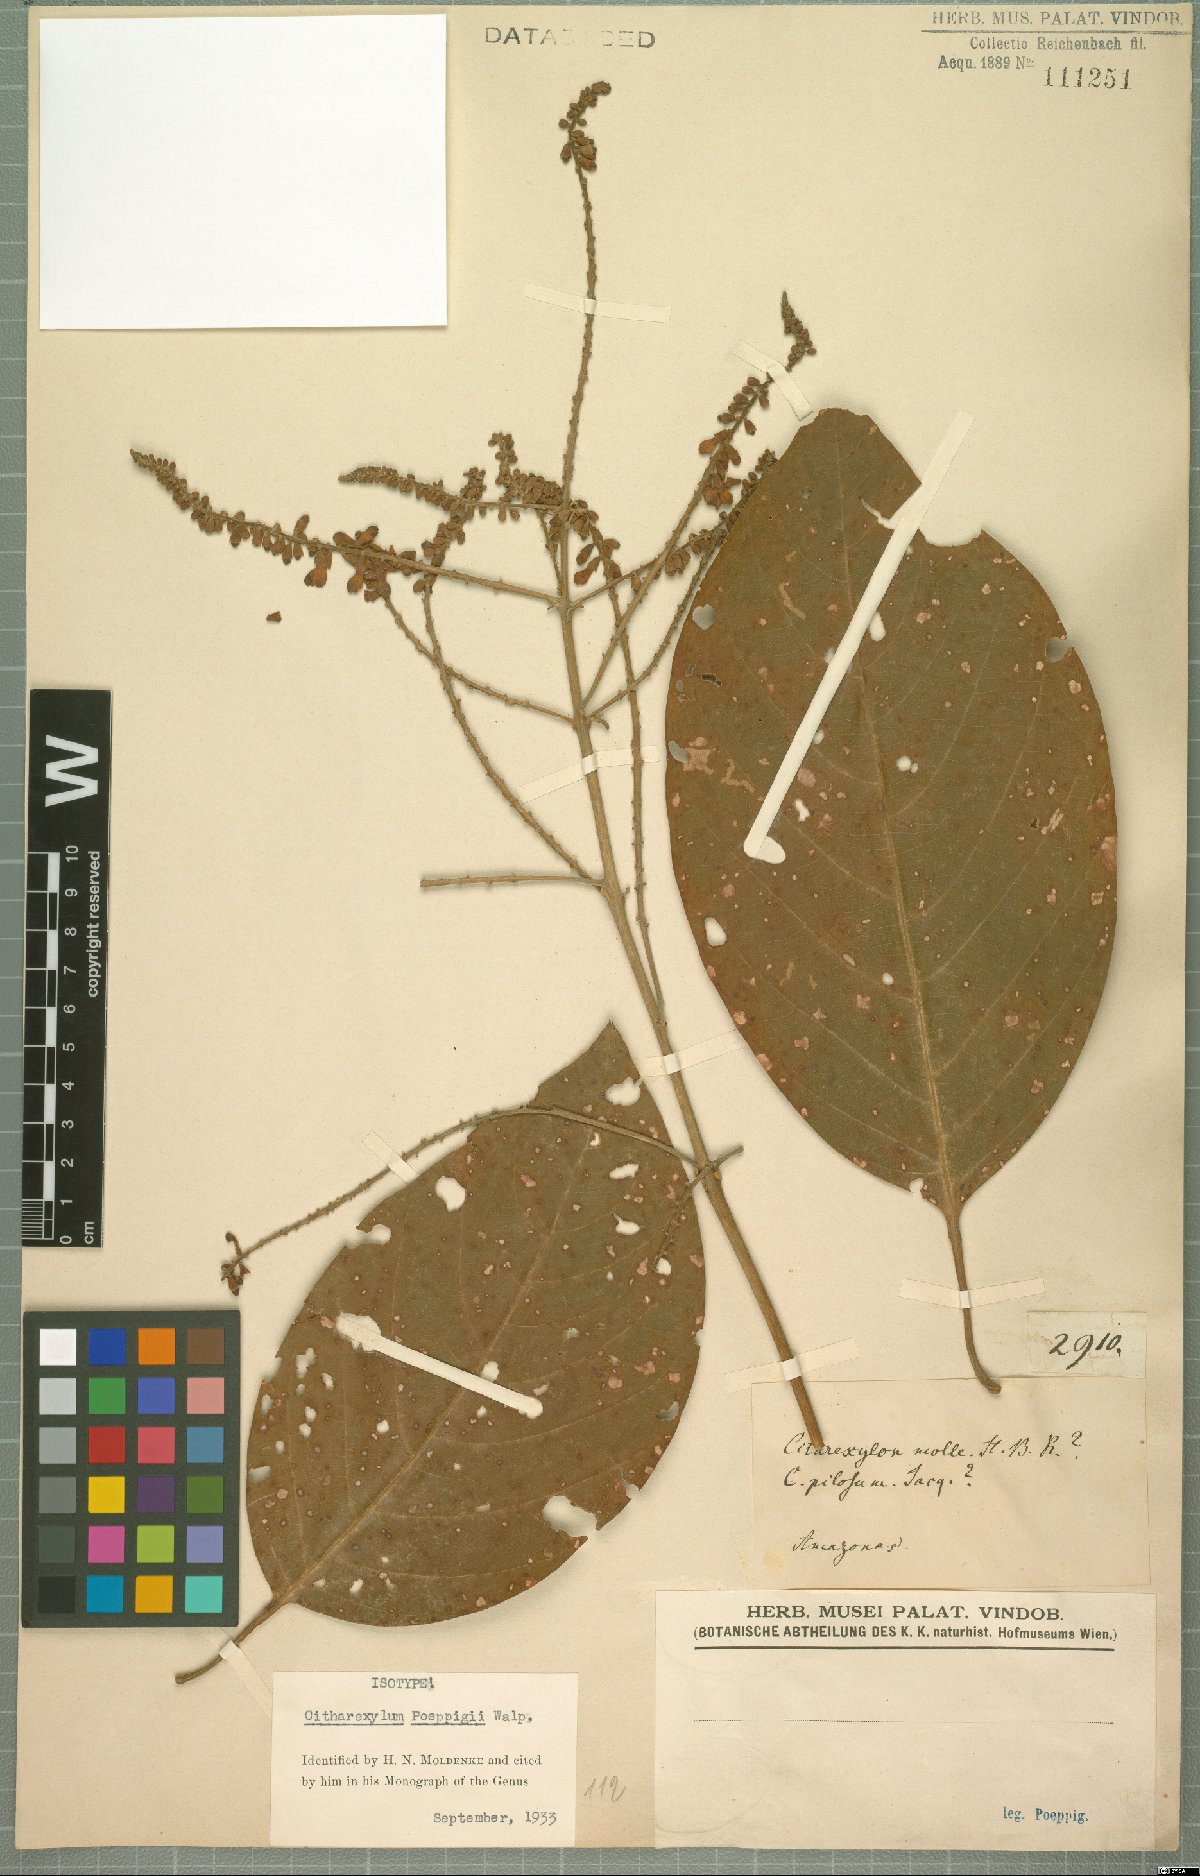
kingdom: Plantae
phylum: Tracheophyta
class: Magnoliopsida
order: Lamiales
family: Verbenaceae
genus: Citharexylum
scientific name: Citharexylum poeppigii
